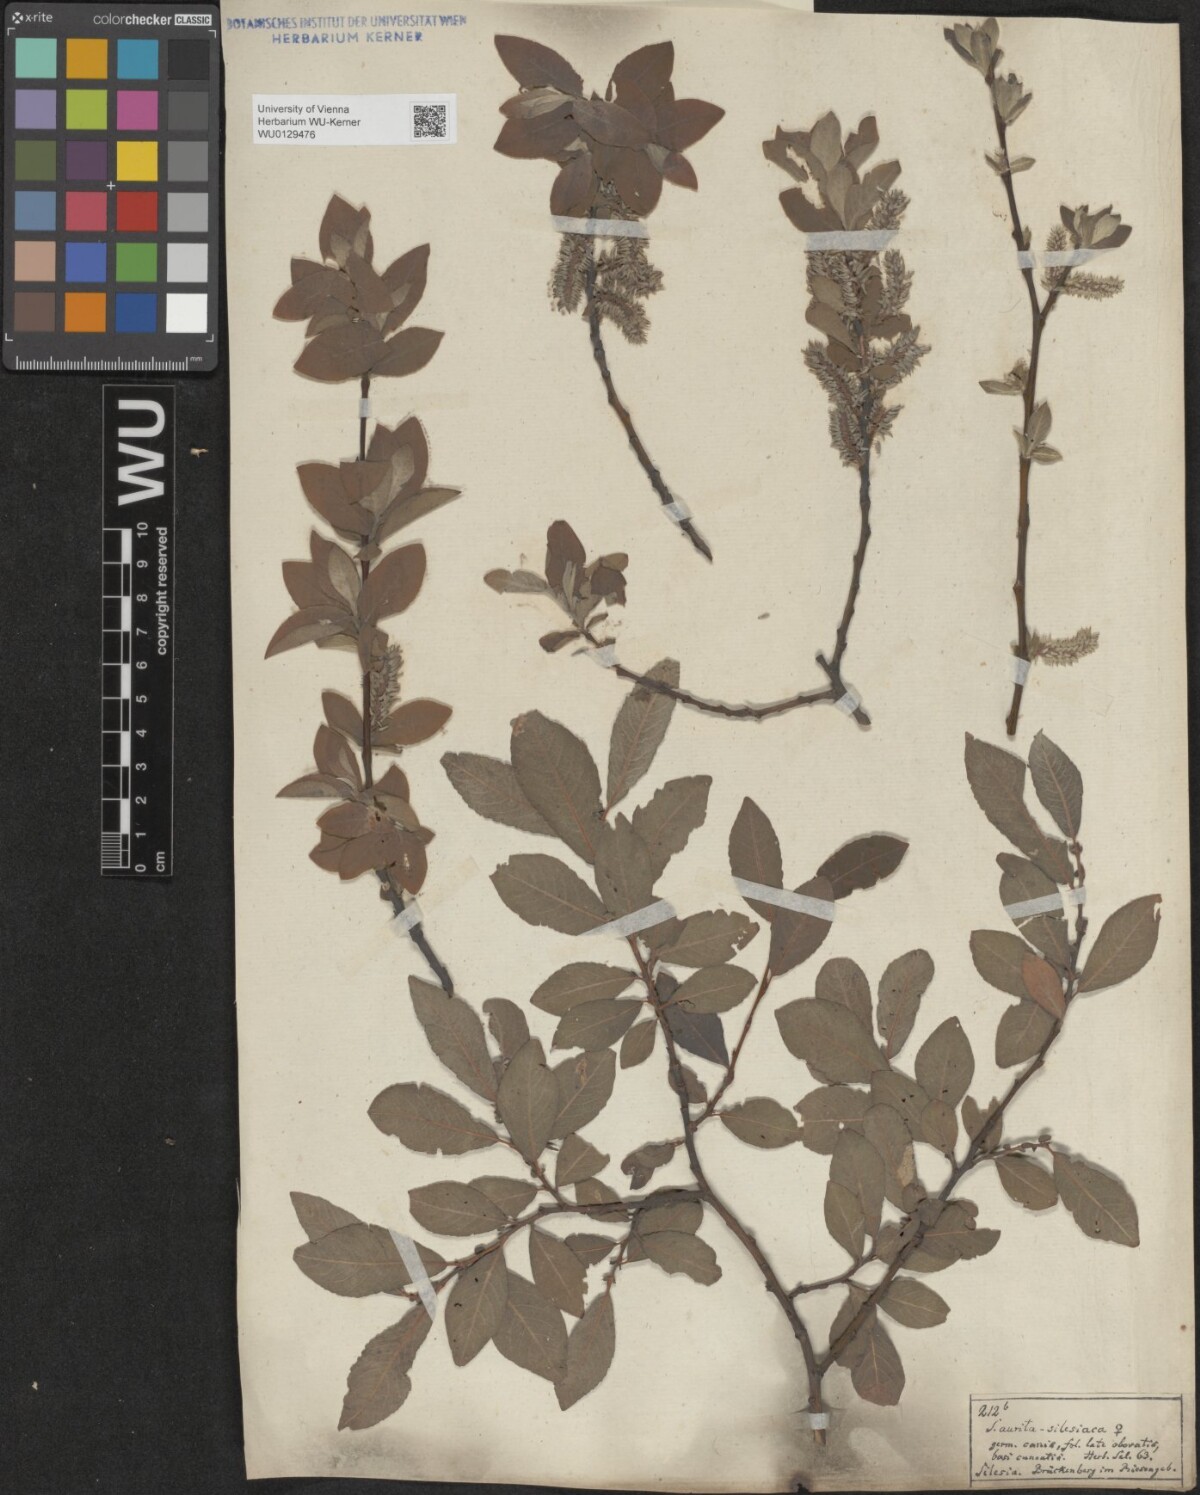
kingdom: Plantae
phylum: Tracheophyta
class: Magnoliopsida
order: Malpighiales
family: Salicaceae
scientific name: Salicaceae
